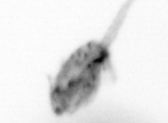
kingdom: Animalia
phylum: Arthropoda
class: Copepoda
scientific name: Copepoda
